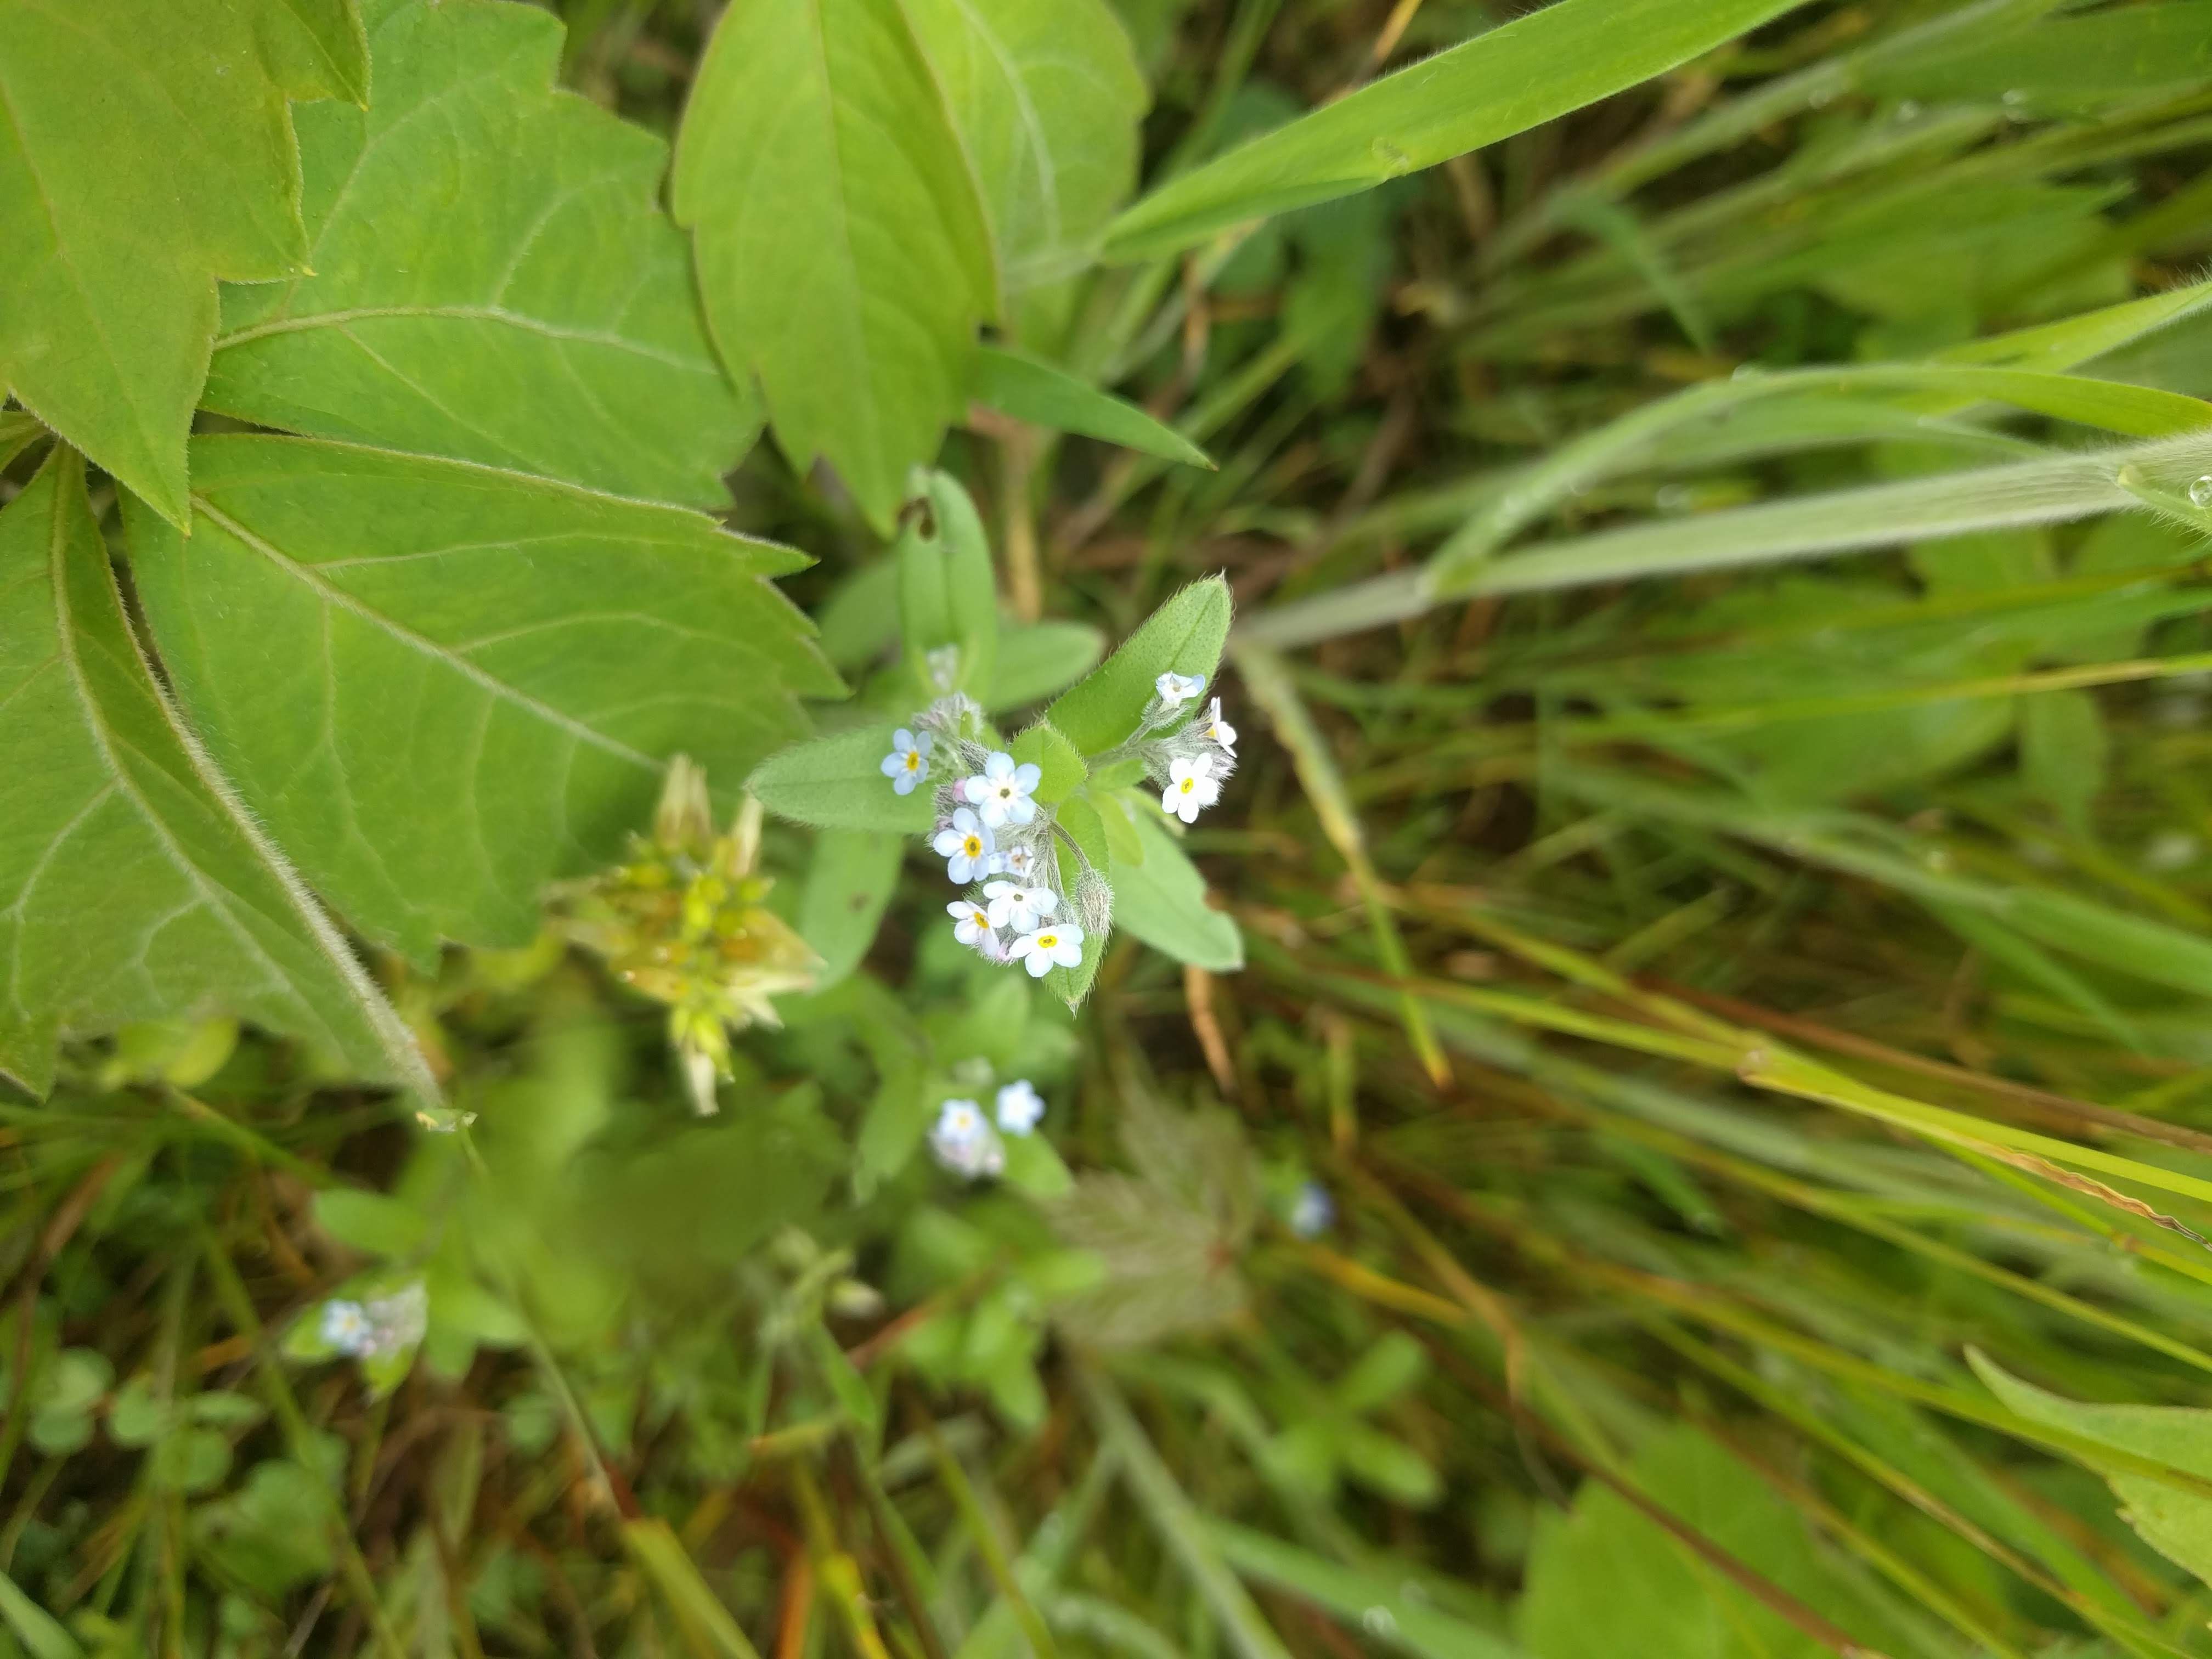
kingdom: Plantae
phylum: Tracheophyta
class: Magnoliopsida
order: Boraginales
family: Boraginaceae
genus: Myosotis
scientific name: Myosotis arvensis
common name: Field forget-me-not
